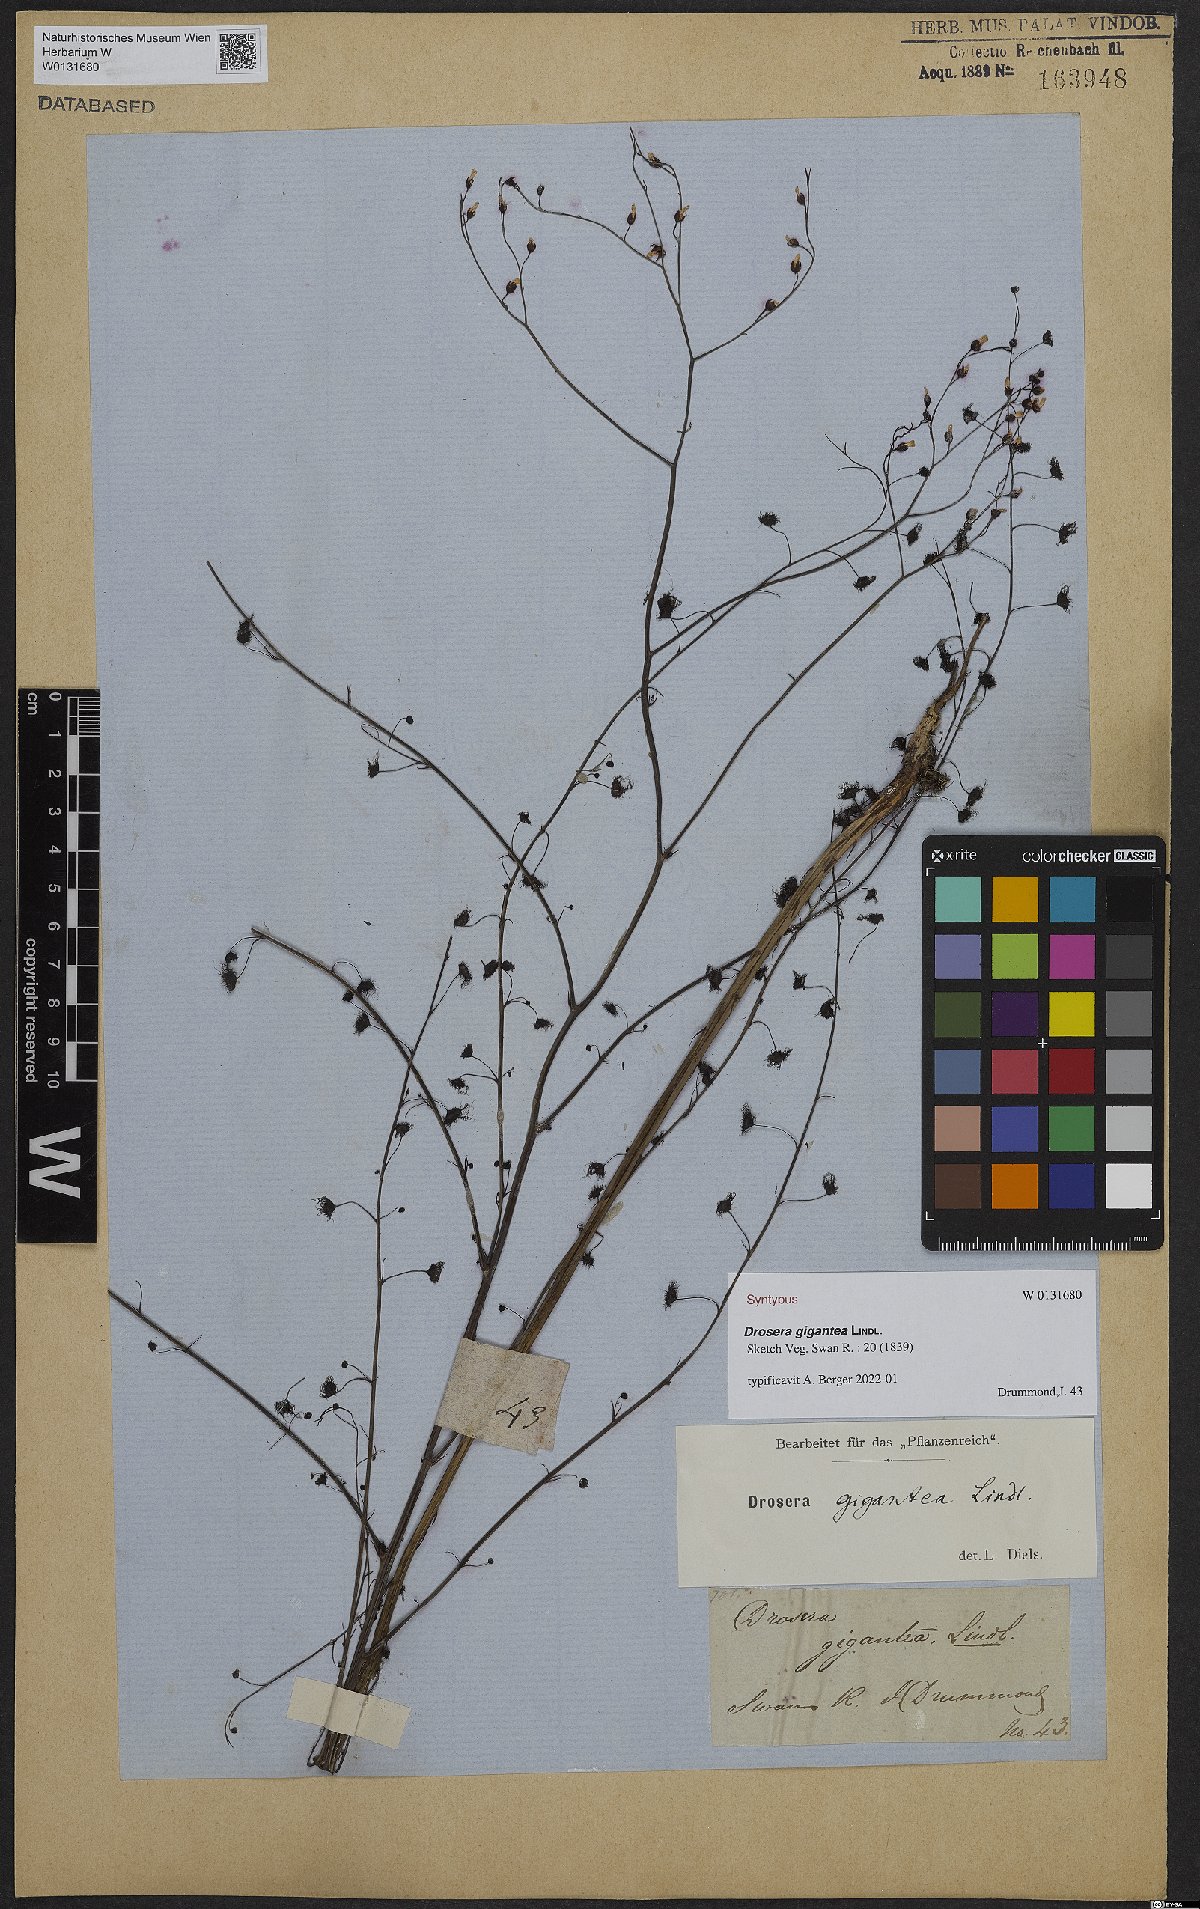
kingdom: Plantae
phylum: Tracheophyta
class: Magnoliopsida
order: Caryophyllales
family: Droseraceae
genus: Drosera
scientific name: Drosera gigantea
